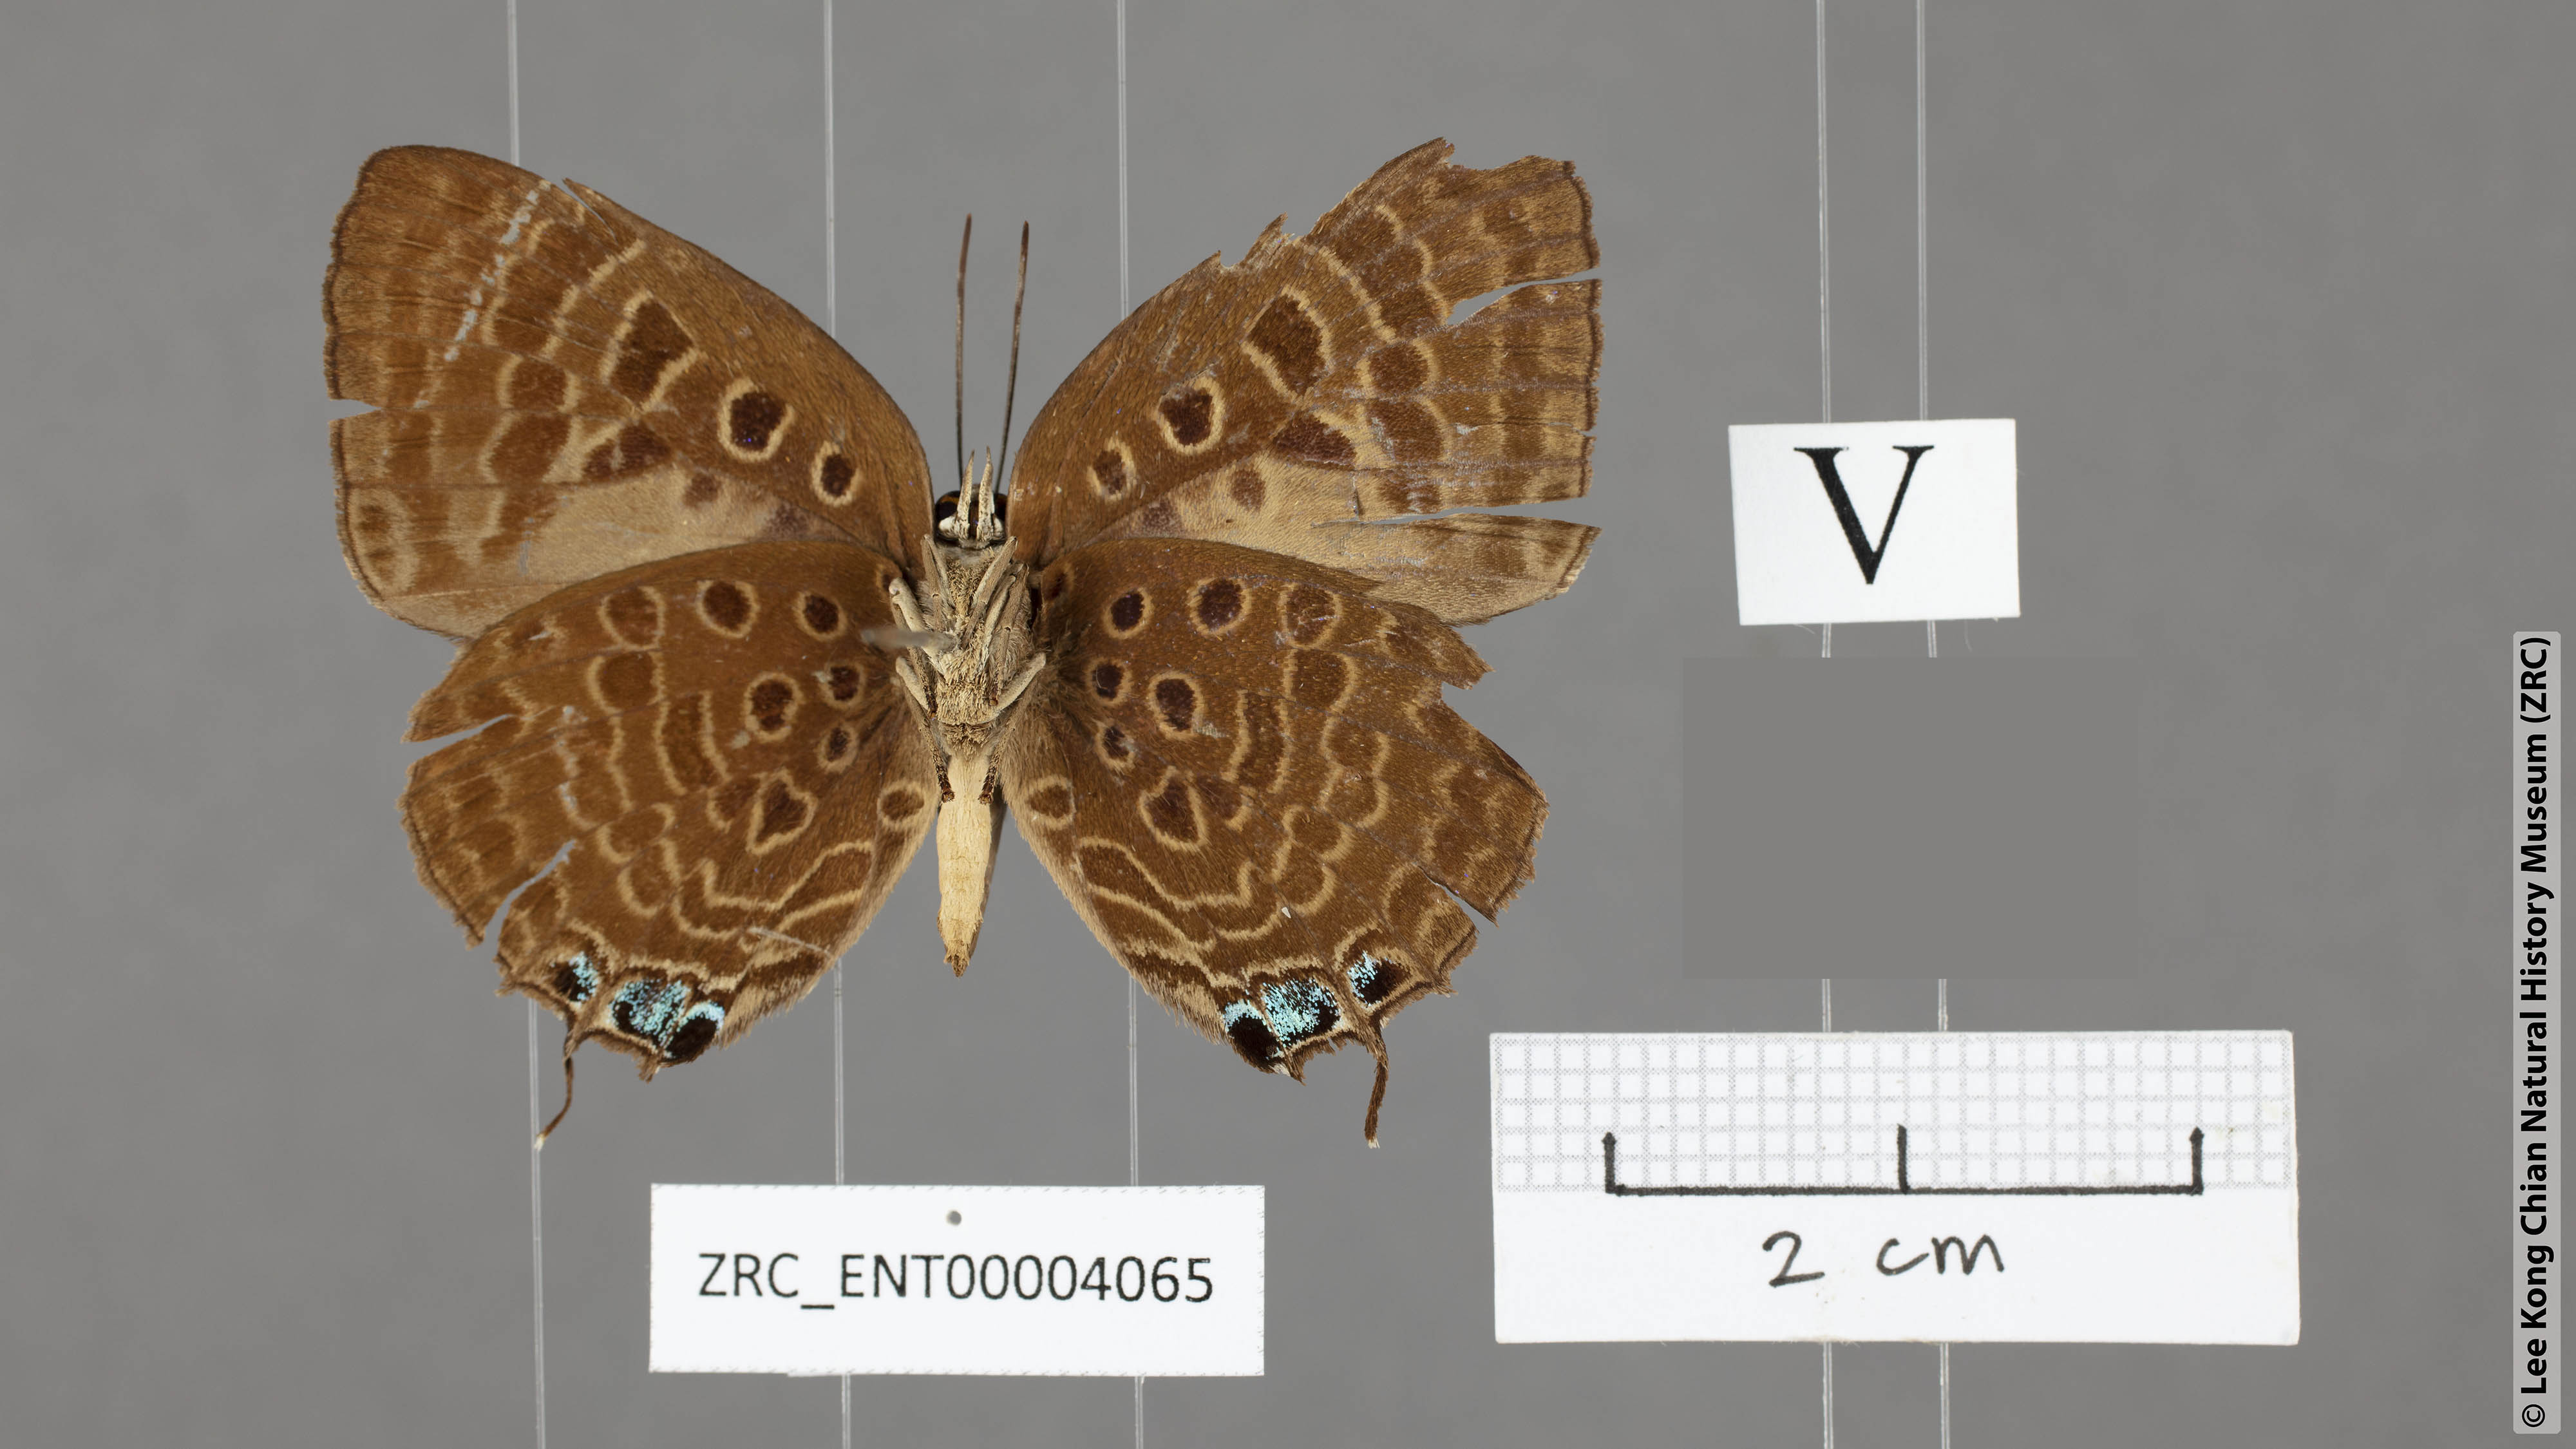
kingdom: Animalia
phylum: Arthropoda
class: Insecta
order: Lepidoptera
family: Lycaenidae
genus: Arhopala
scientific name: Arhopala vihara
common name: Large spotted oakblue
